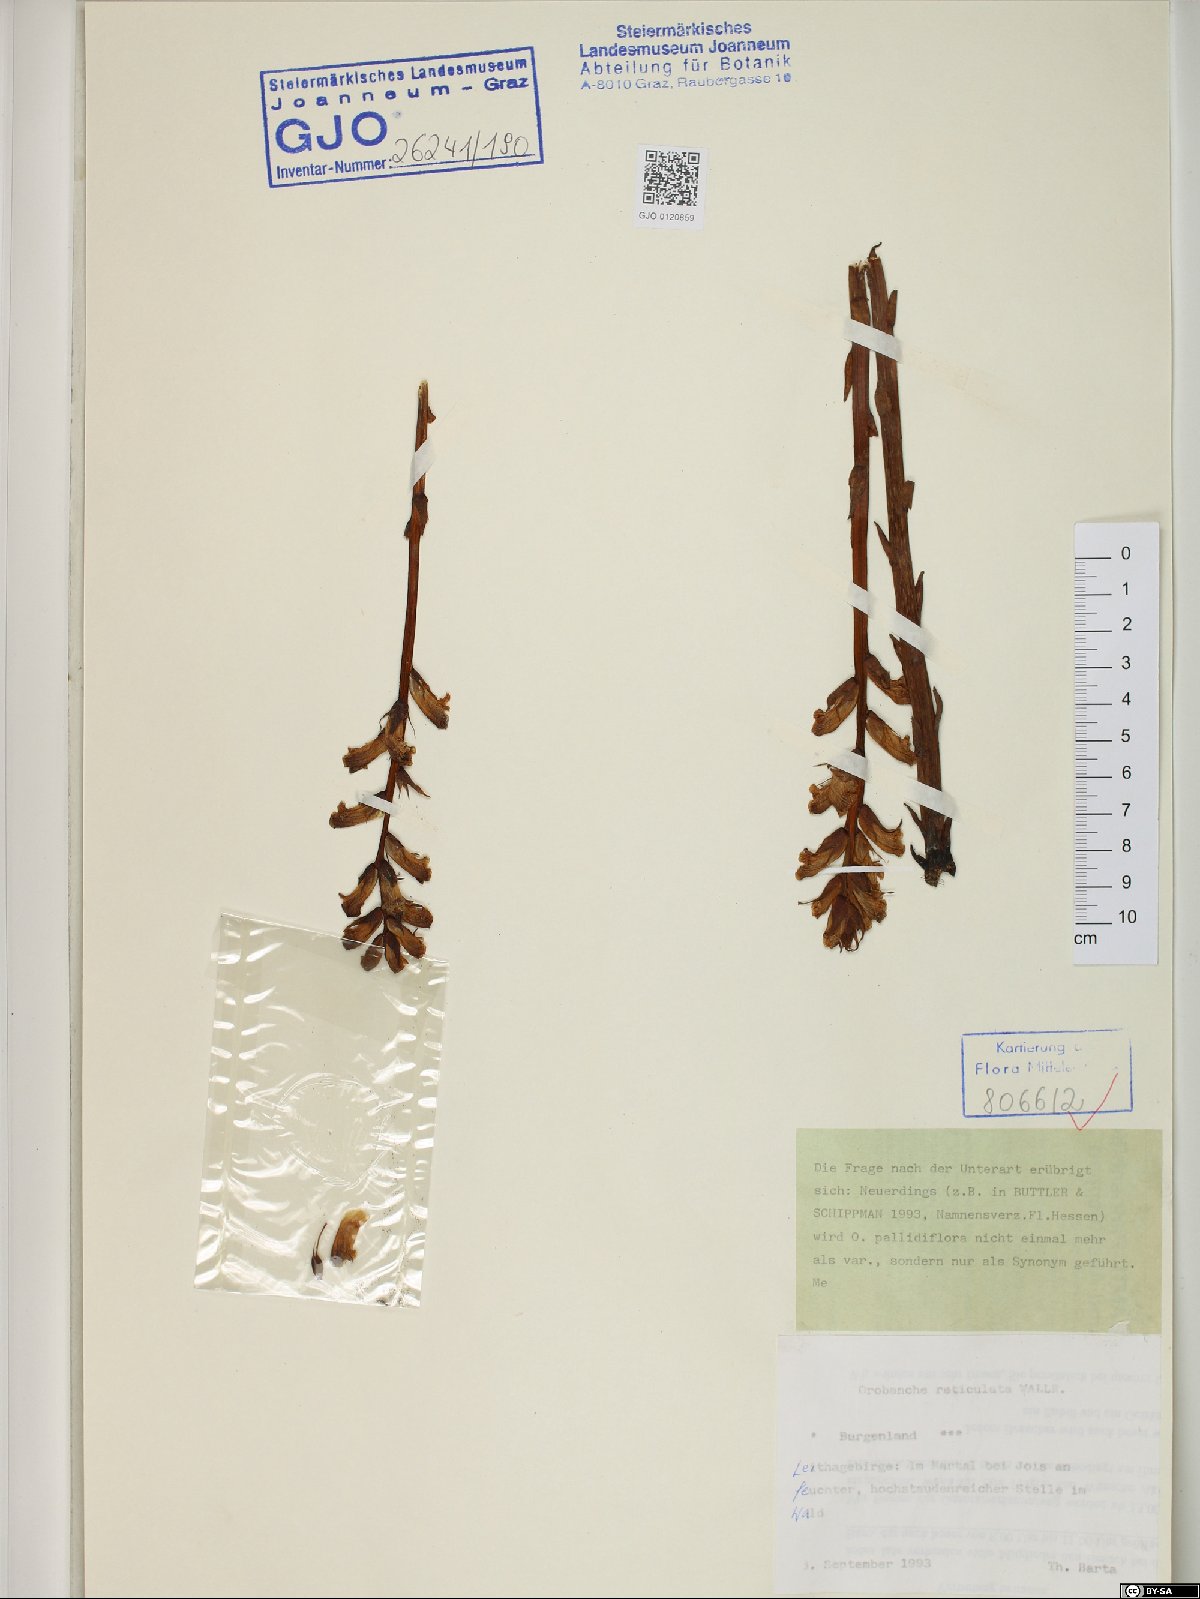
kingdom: Plantae
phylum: Tracheophyta
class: Magnoliopsida
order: Lamiales
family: Orobanchaceae
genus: Orobanche
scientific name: Orobanche reticulata
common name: Thistle broomrape
